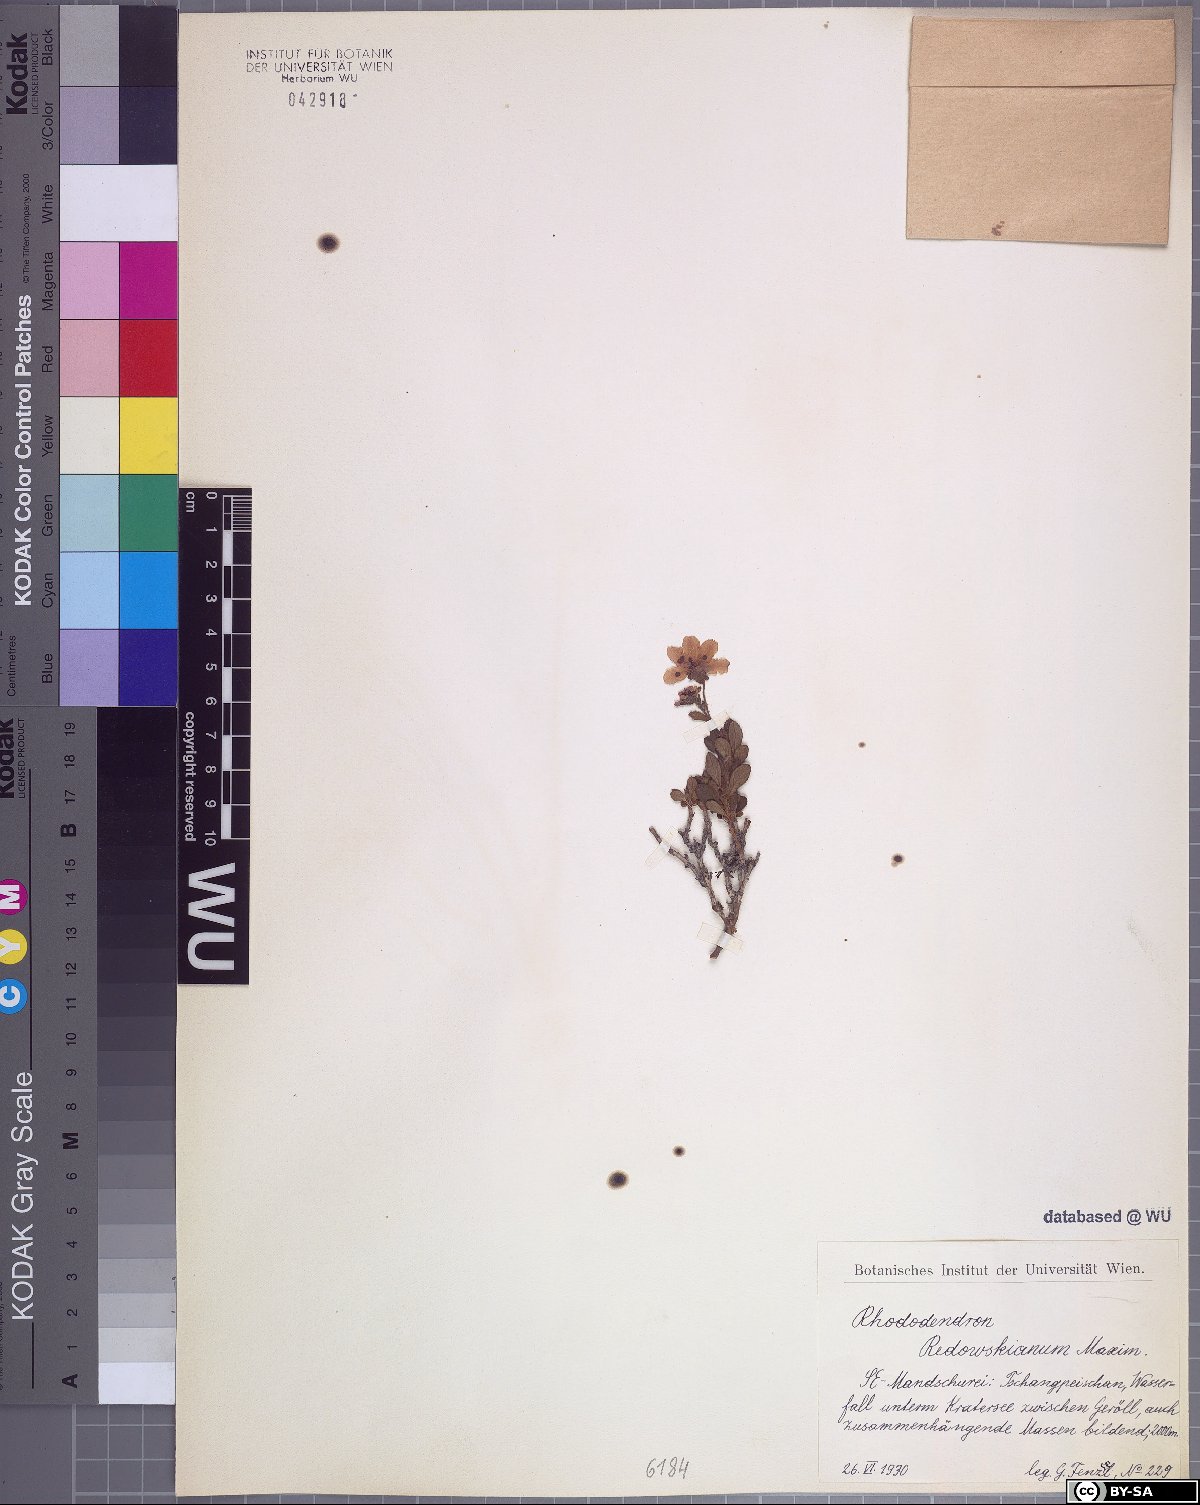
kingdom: Plantae
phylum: Tracheophyta
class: Magnoliopsida
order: Ericales
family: Ericaceae
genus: Rhododendron
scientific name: Rhododendron redowskianum
